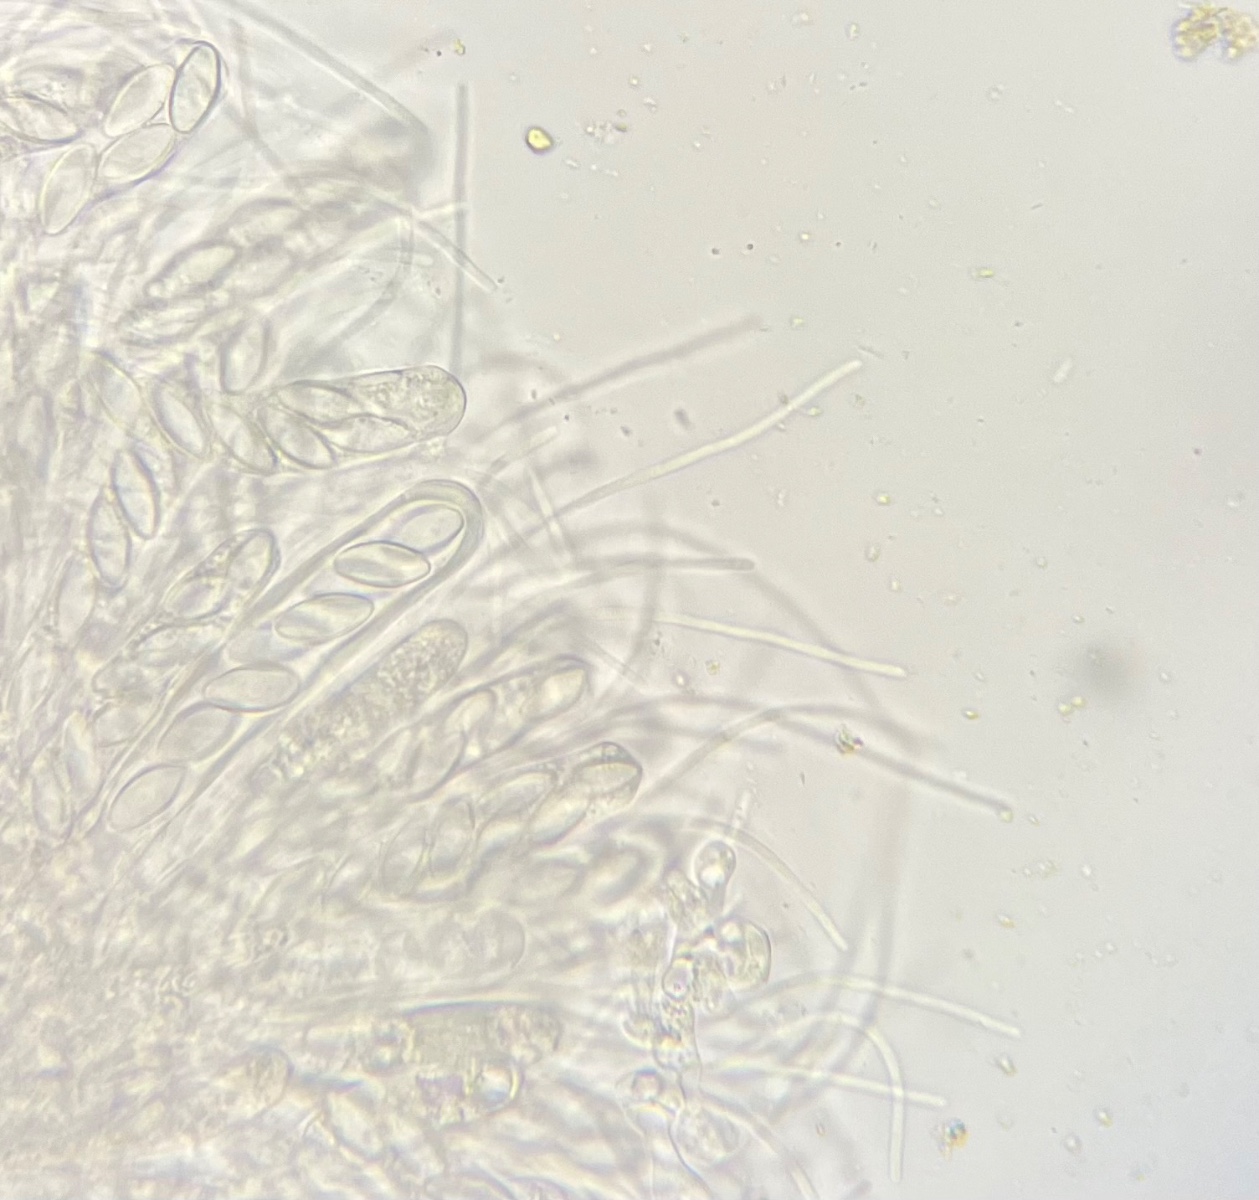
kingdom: Fungi
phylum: Ascomycota
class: Pezizomycetes
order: Pezizales
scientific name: Pezizales
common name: bægersvampordenen
